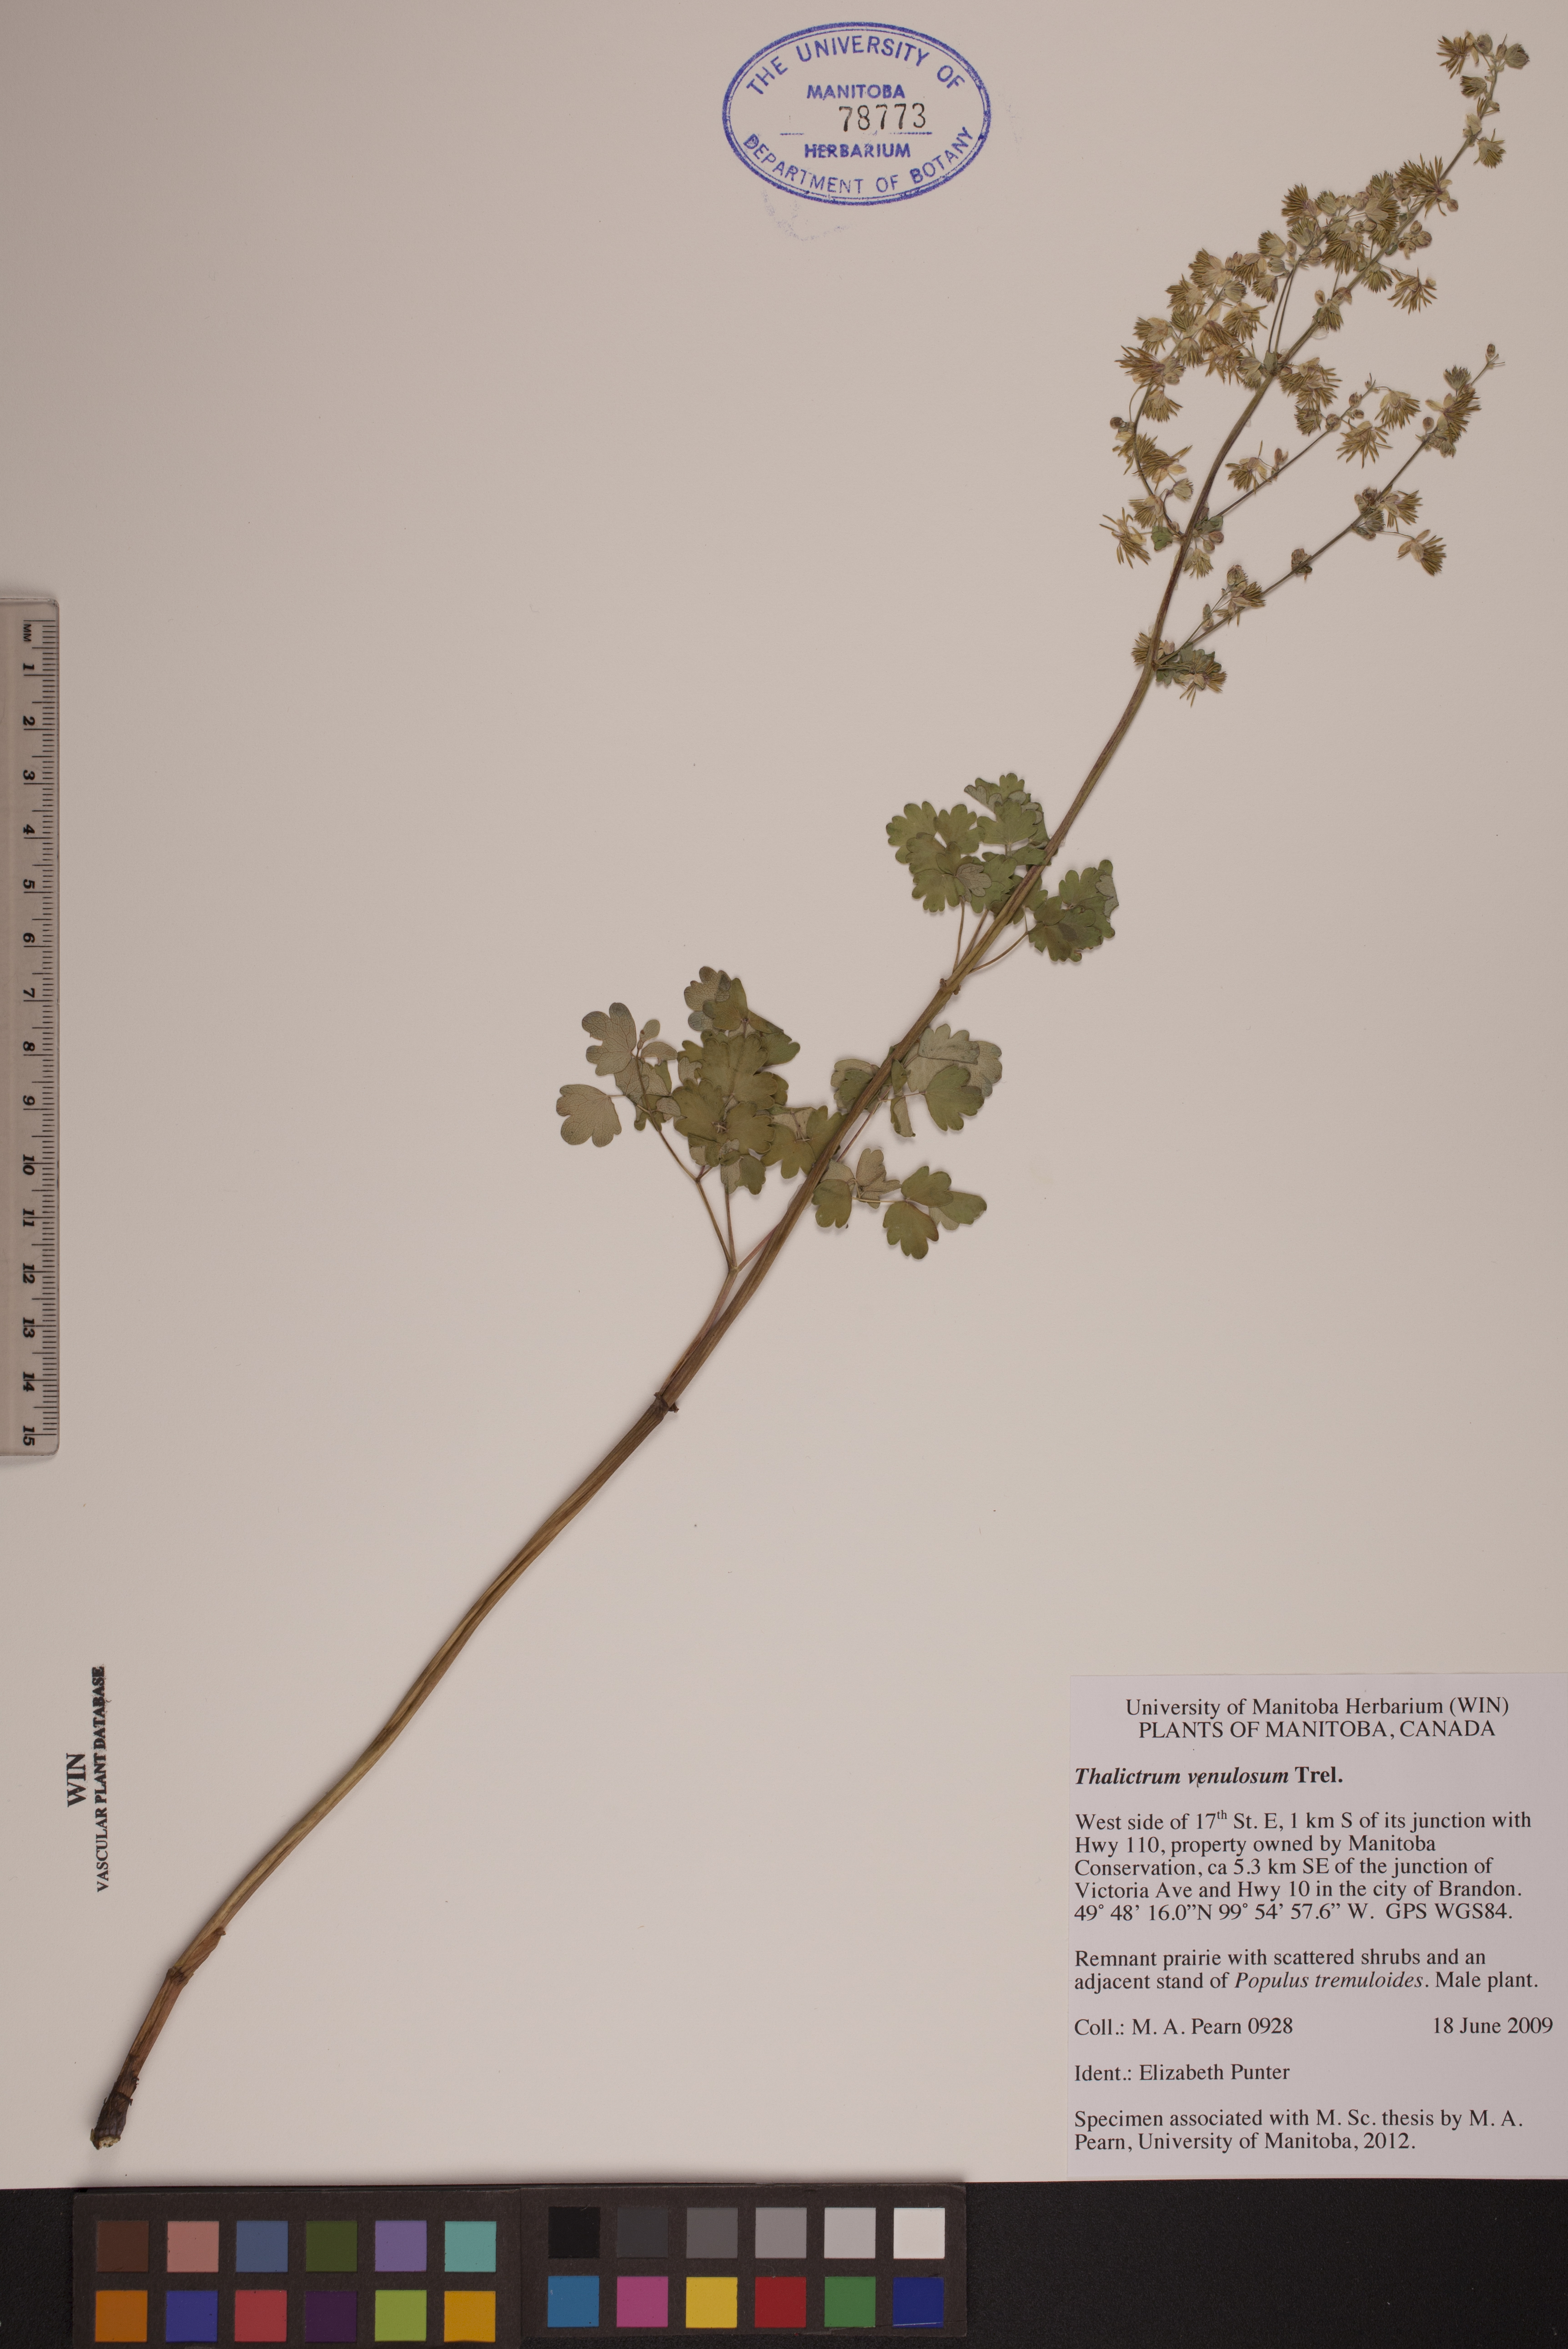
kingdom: Plantae
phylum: Tracheophyta
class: Magnoliopsida
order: Ranunculales
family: Ranunculaceae
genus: Thalictrum
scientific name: Thalictrum venulosum
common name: Early meadow-rue
